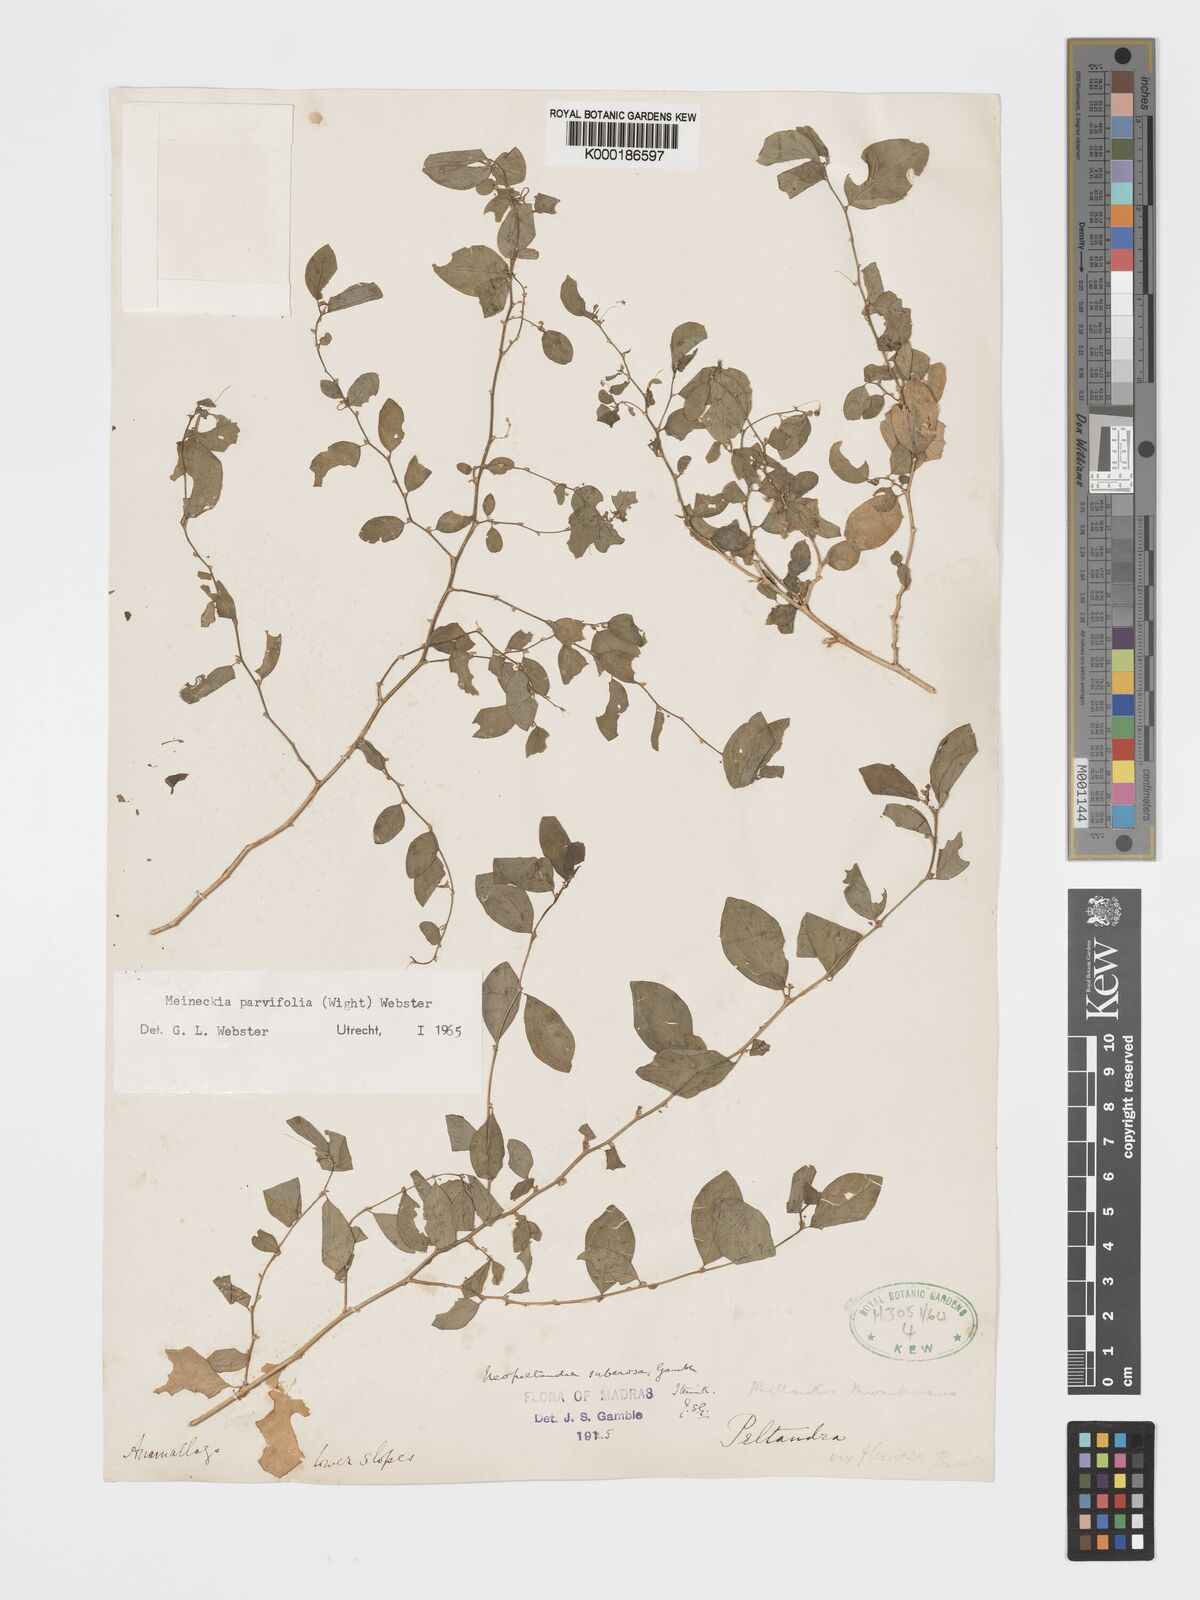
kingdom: Plantae
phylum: Tracheophyta
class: Magnoliopsida
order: Malpighiales
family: Phyllanthaceae
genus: Meineckia
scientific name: Meineckia parvifolia
